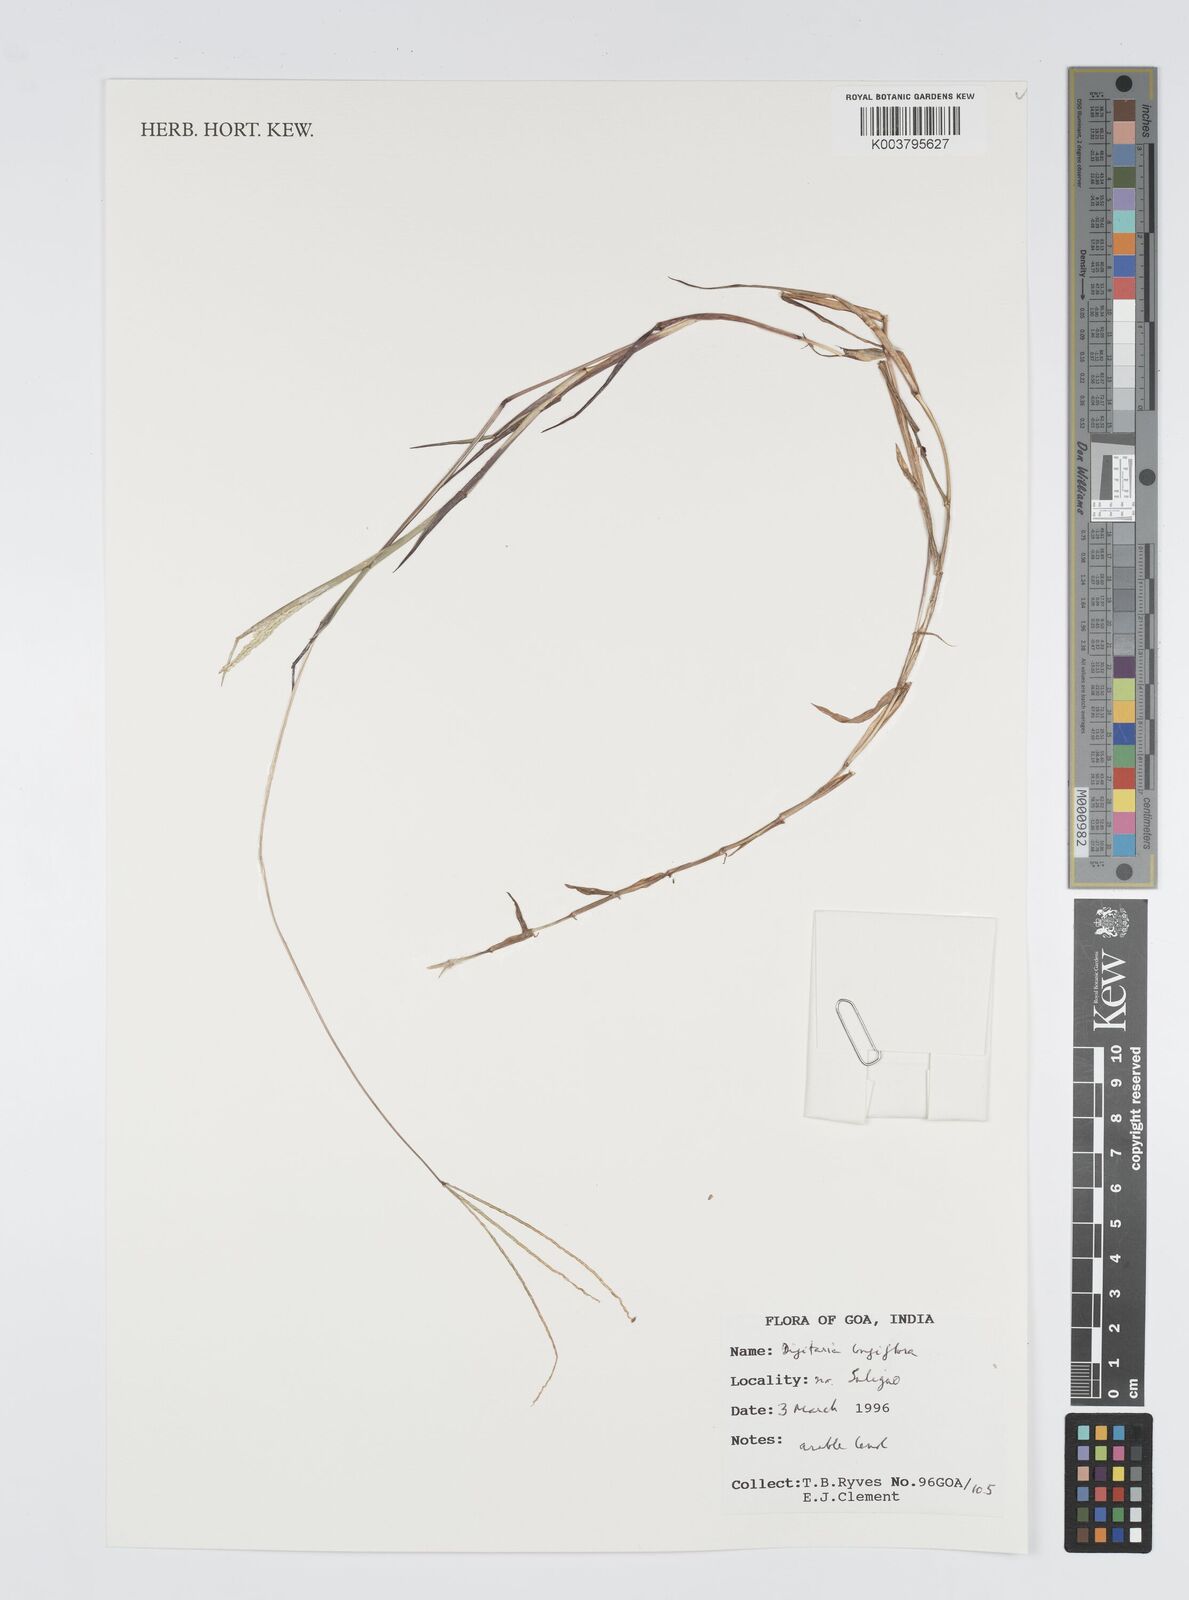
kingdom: Plantae
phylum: Tracheophyta
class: Liliopsida
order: Poales
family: Poaceae
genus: Digitaria
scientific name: Digitaria longiflora
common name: Wire crabgrass
